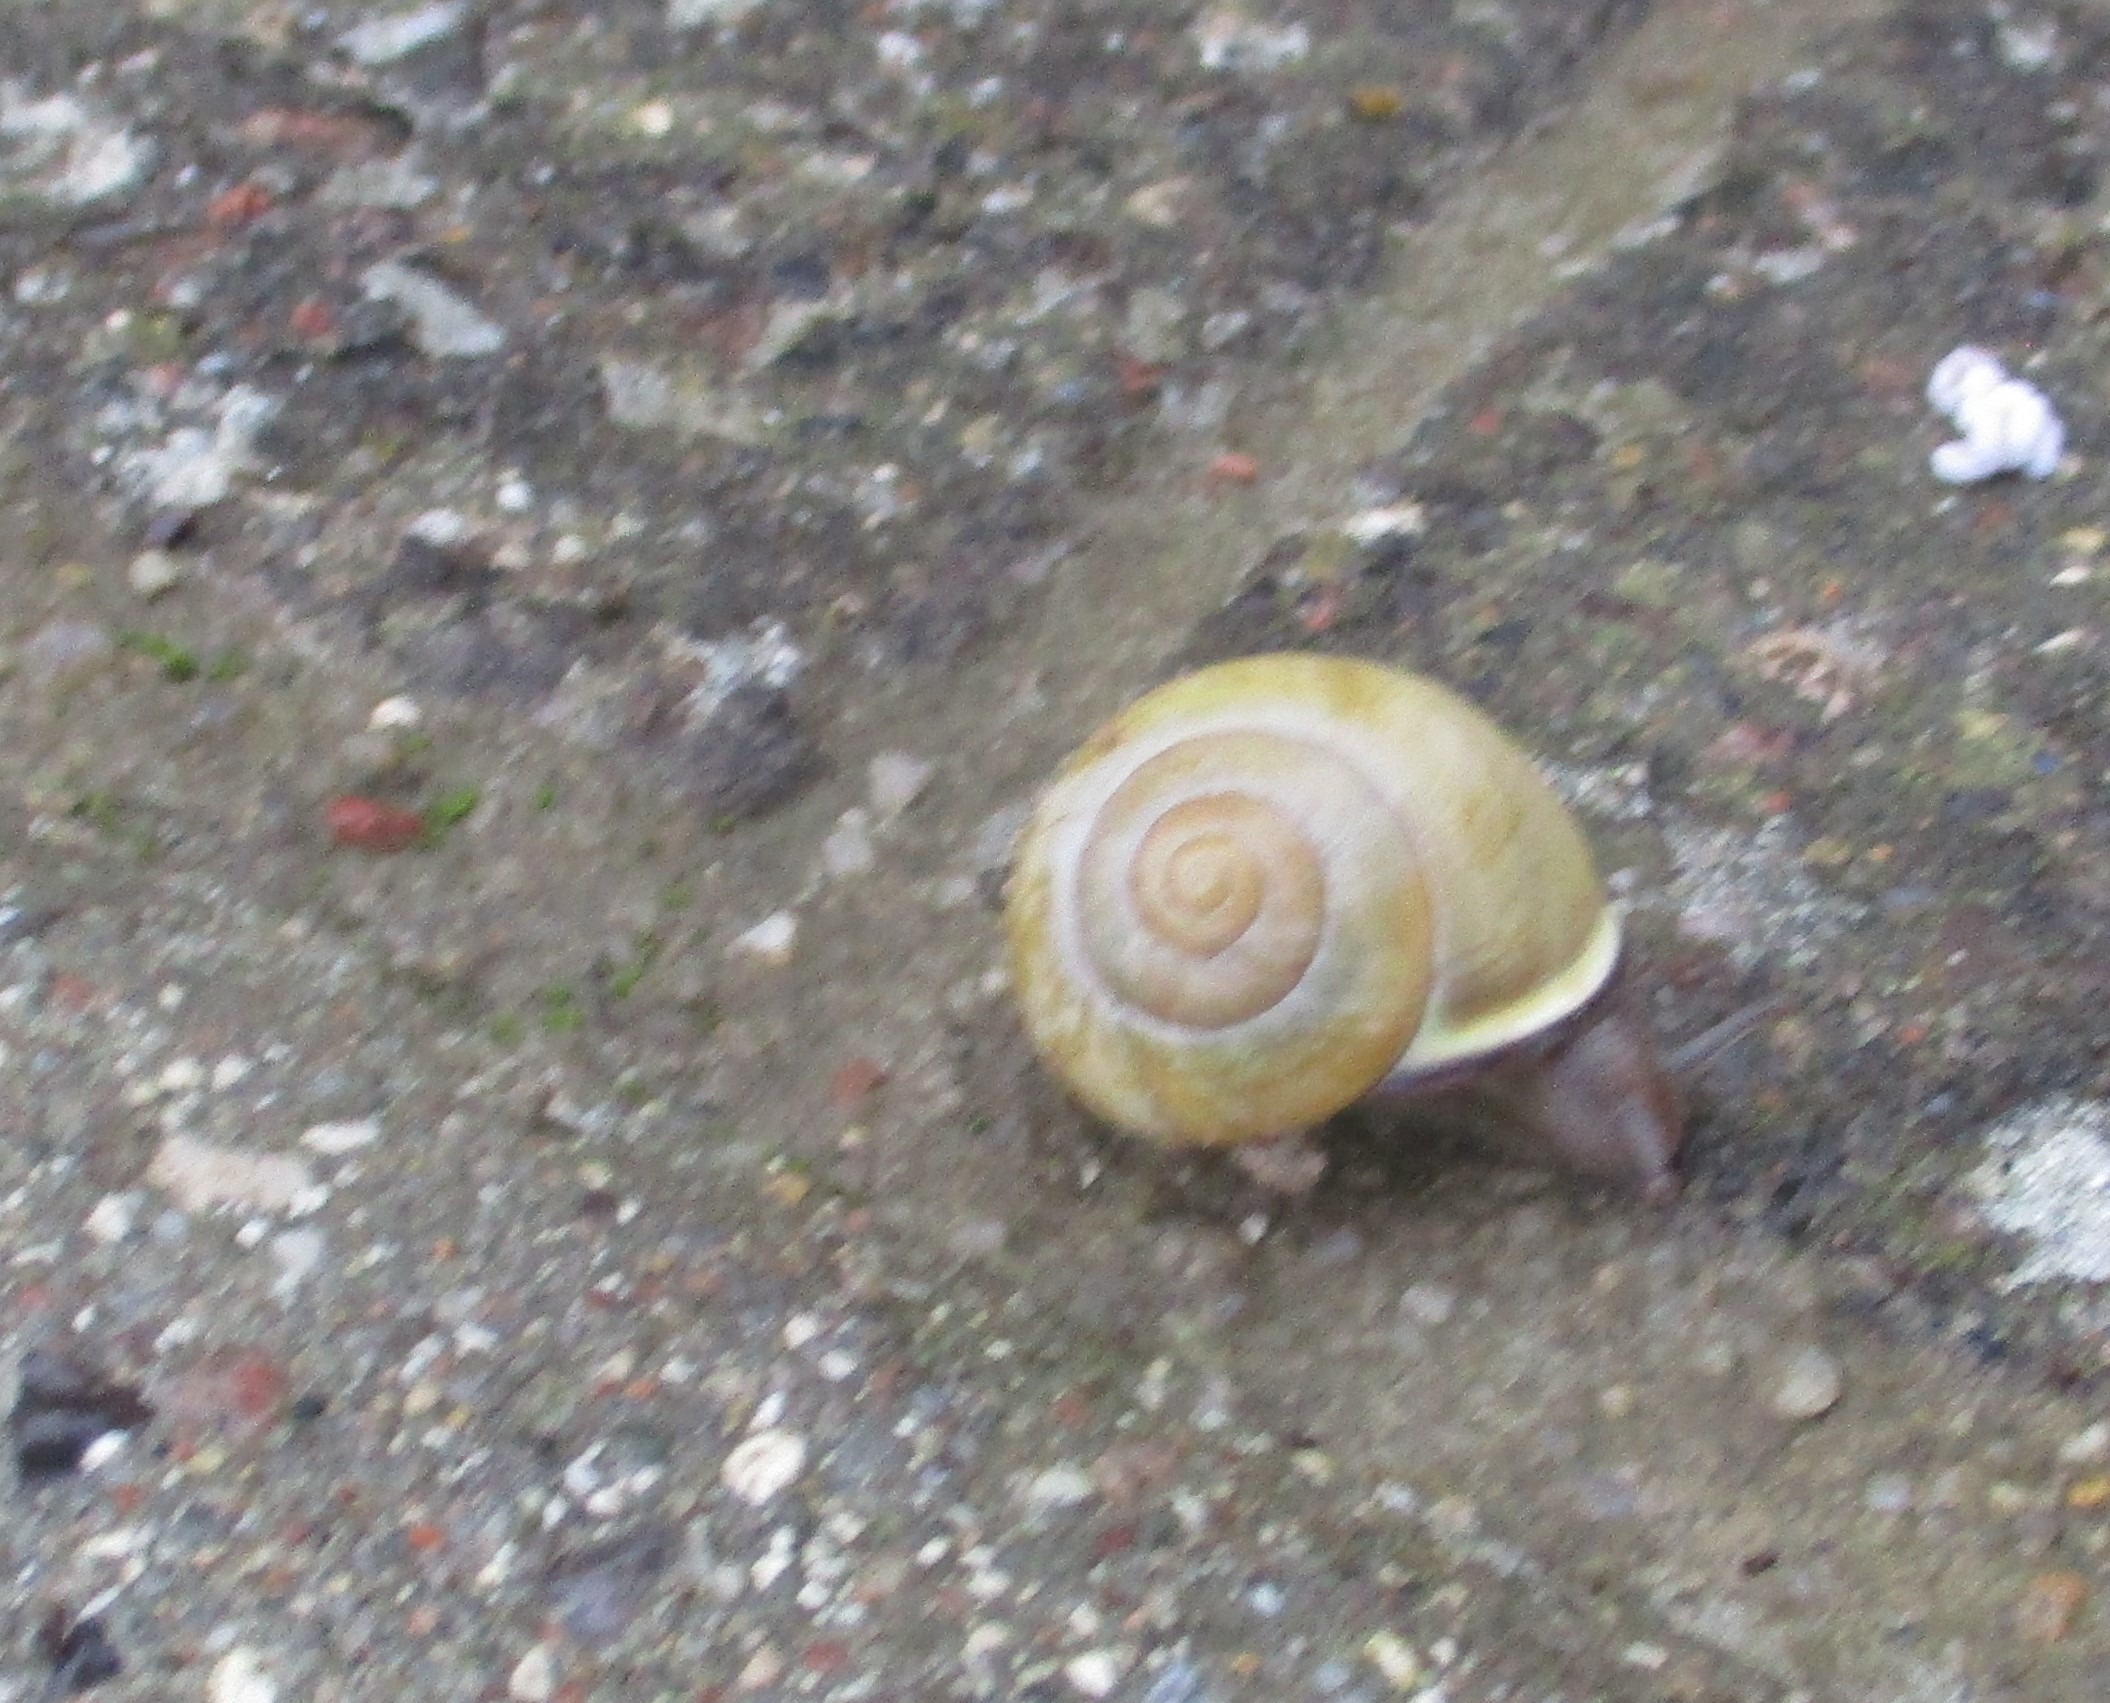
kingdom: Animalia
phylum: Mollusca
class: Gastropoda
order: Stylommatophora
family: Helicidae
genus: Cepaea
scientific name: Cepaea nemoralis
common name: Lundsnegl
